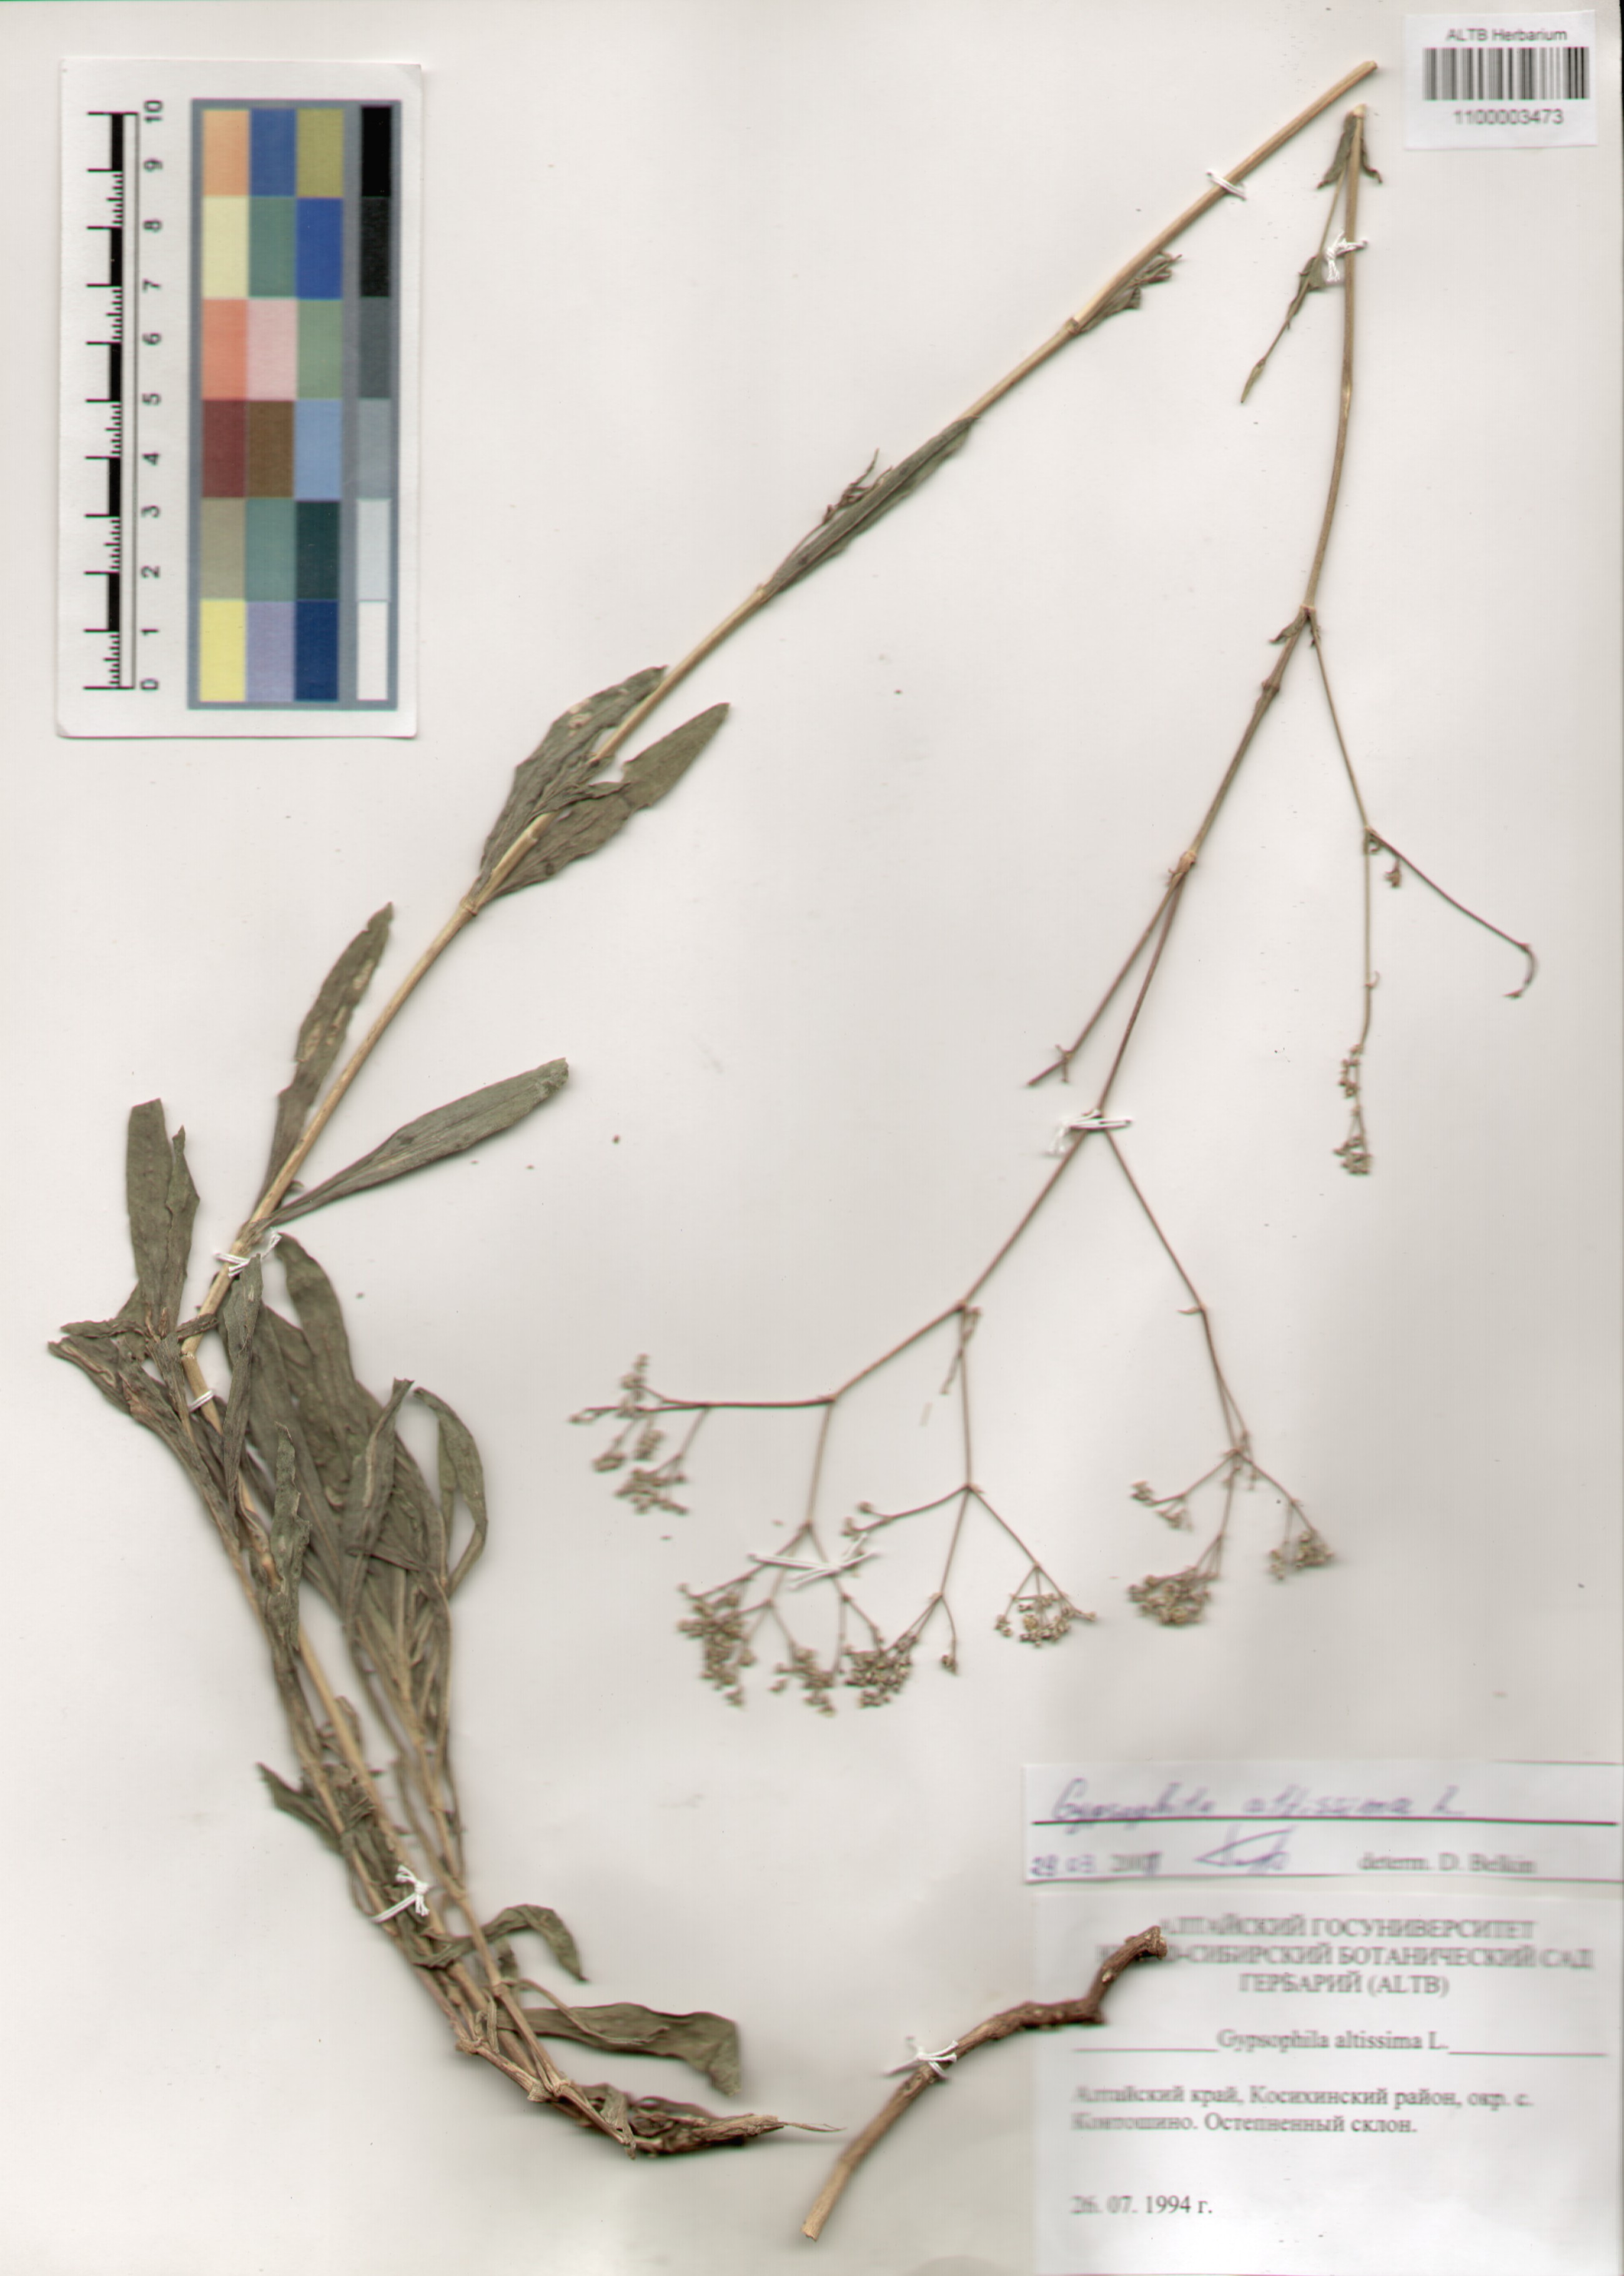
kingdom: Plantae
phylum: Tracheophyta
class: Magnoliopsida
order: Caryophyllales
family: Caryophyllaceae
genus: Gypsophila
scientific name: Gypsophila altissima
